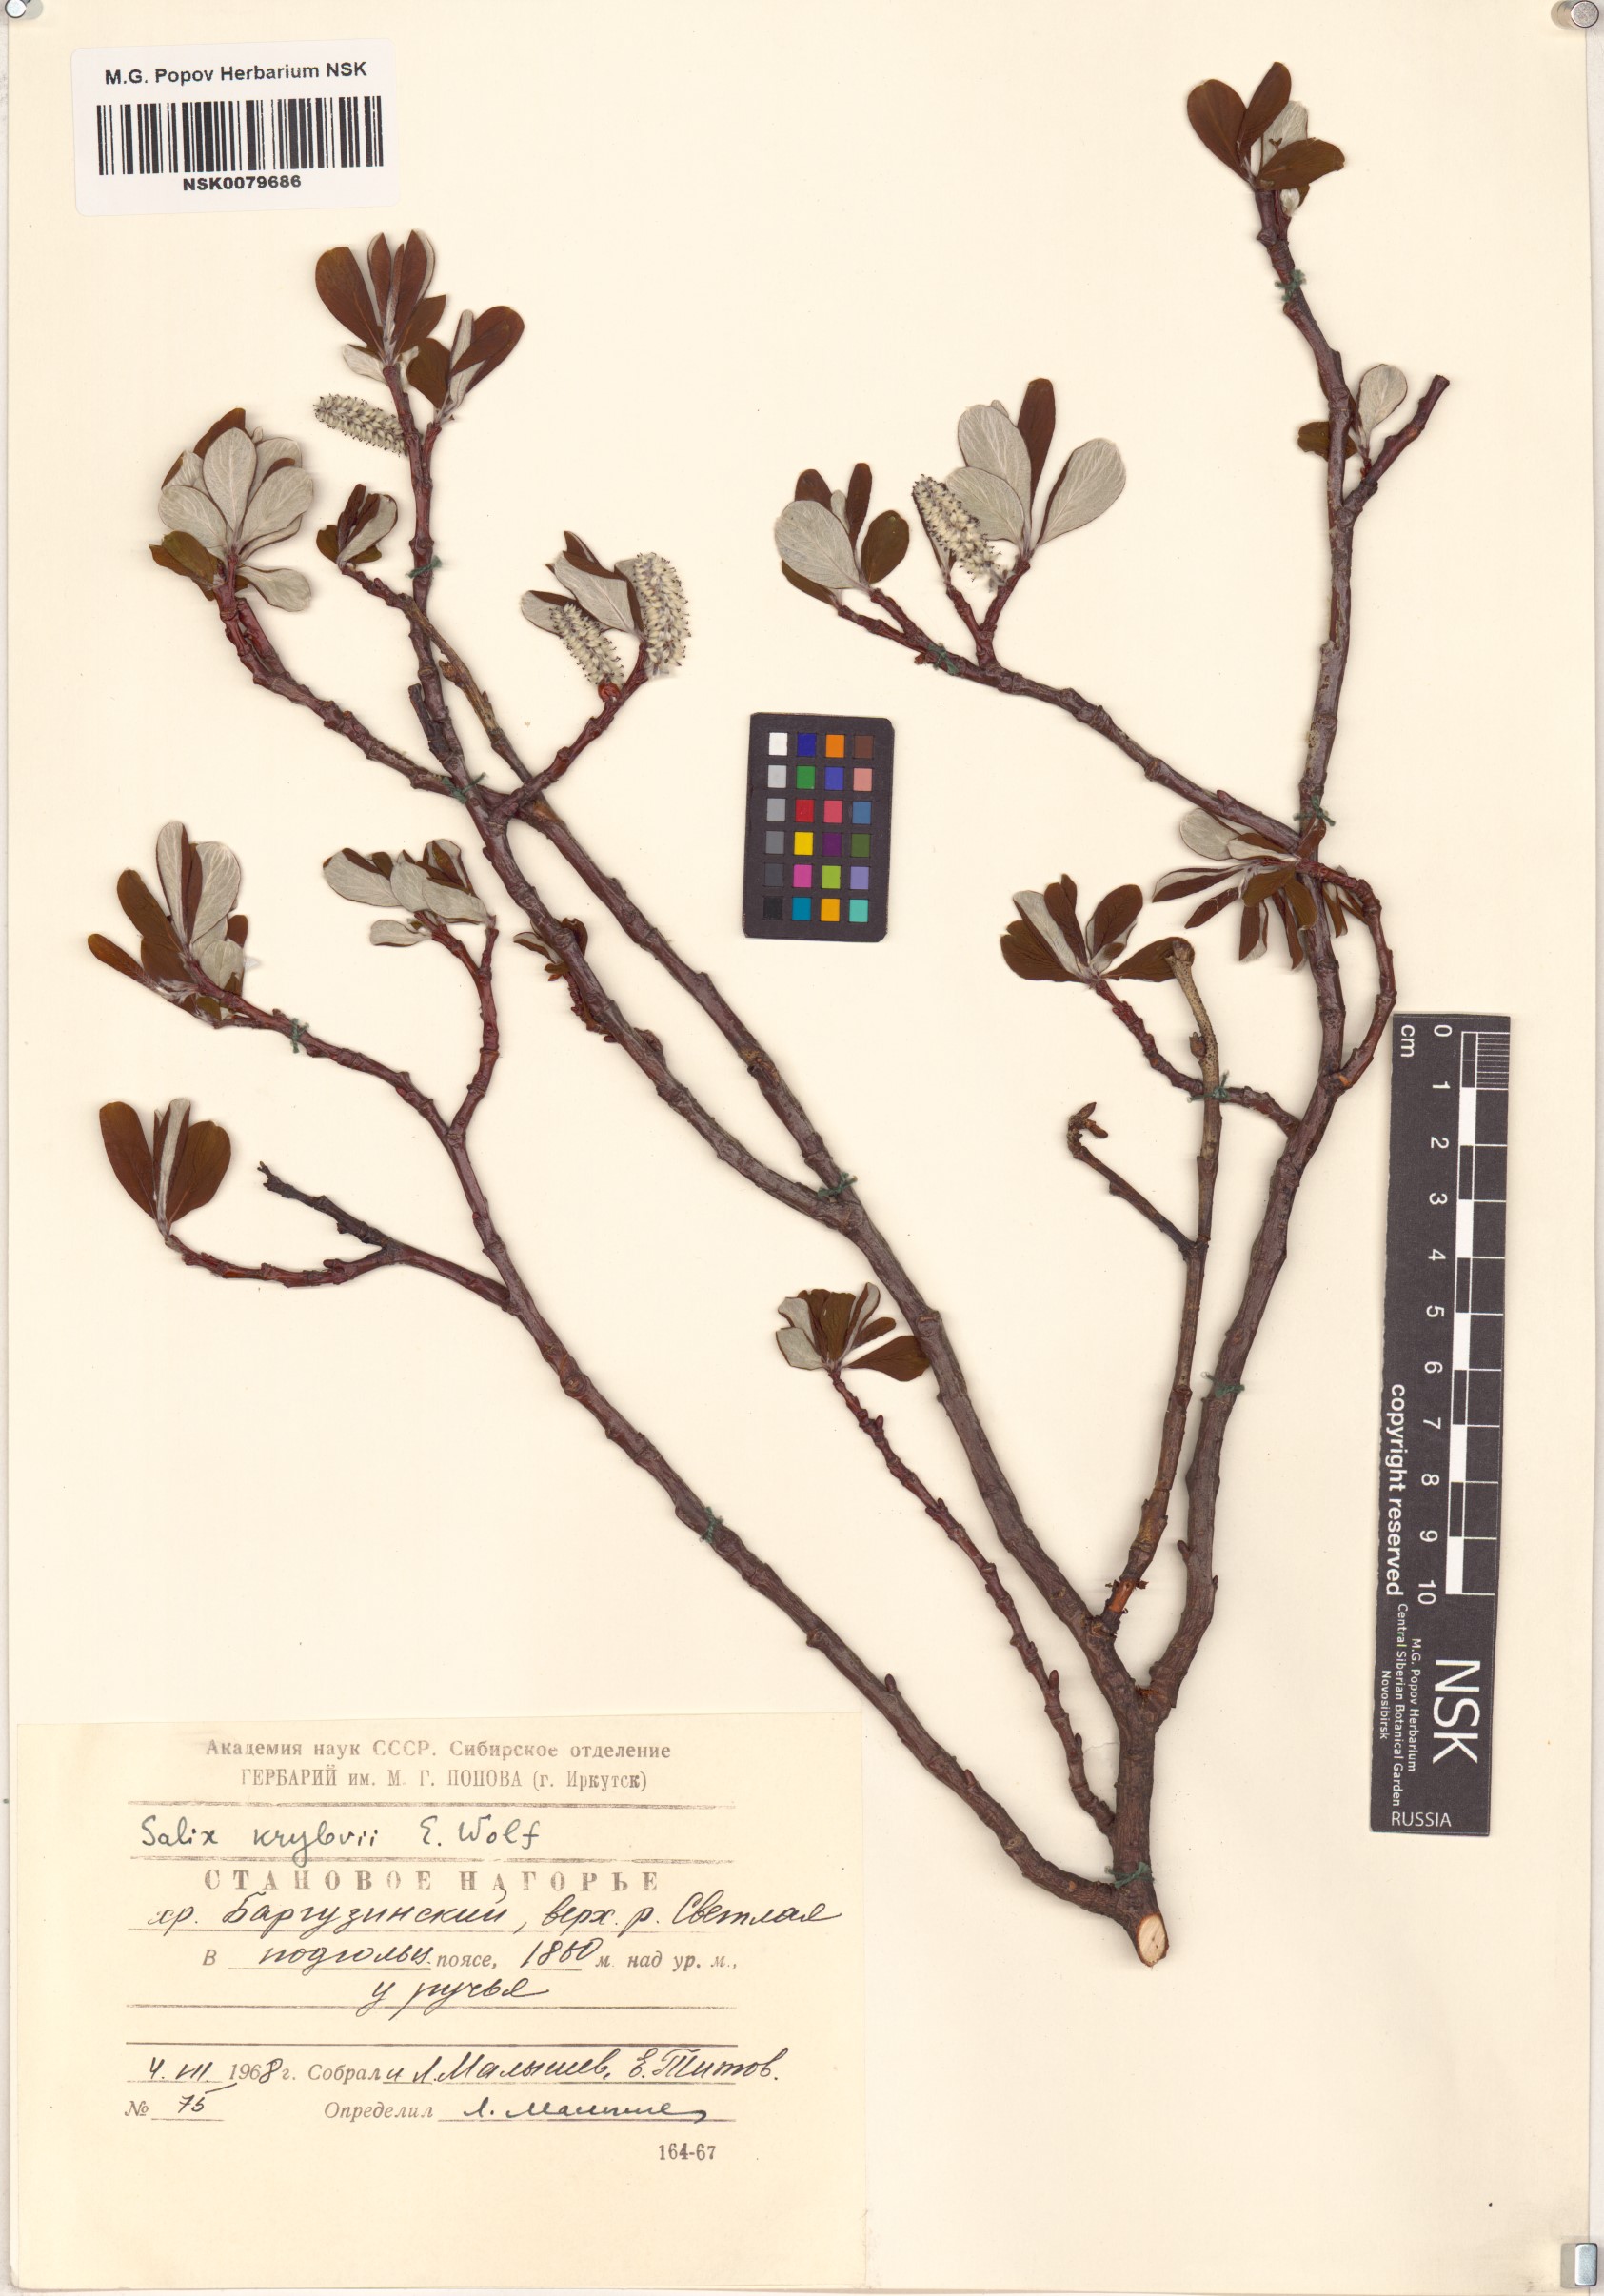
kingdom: Plantae
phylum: Tracheophyta
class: Magnoliopsida
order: Malpighiales
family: Salicaceae
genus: Salix
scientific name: Salix krylovii
